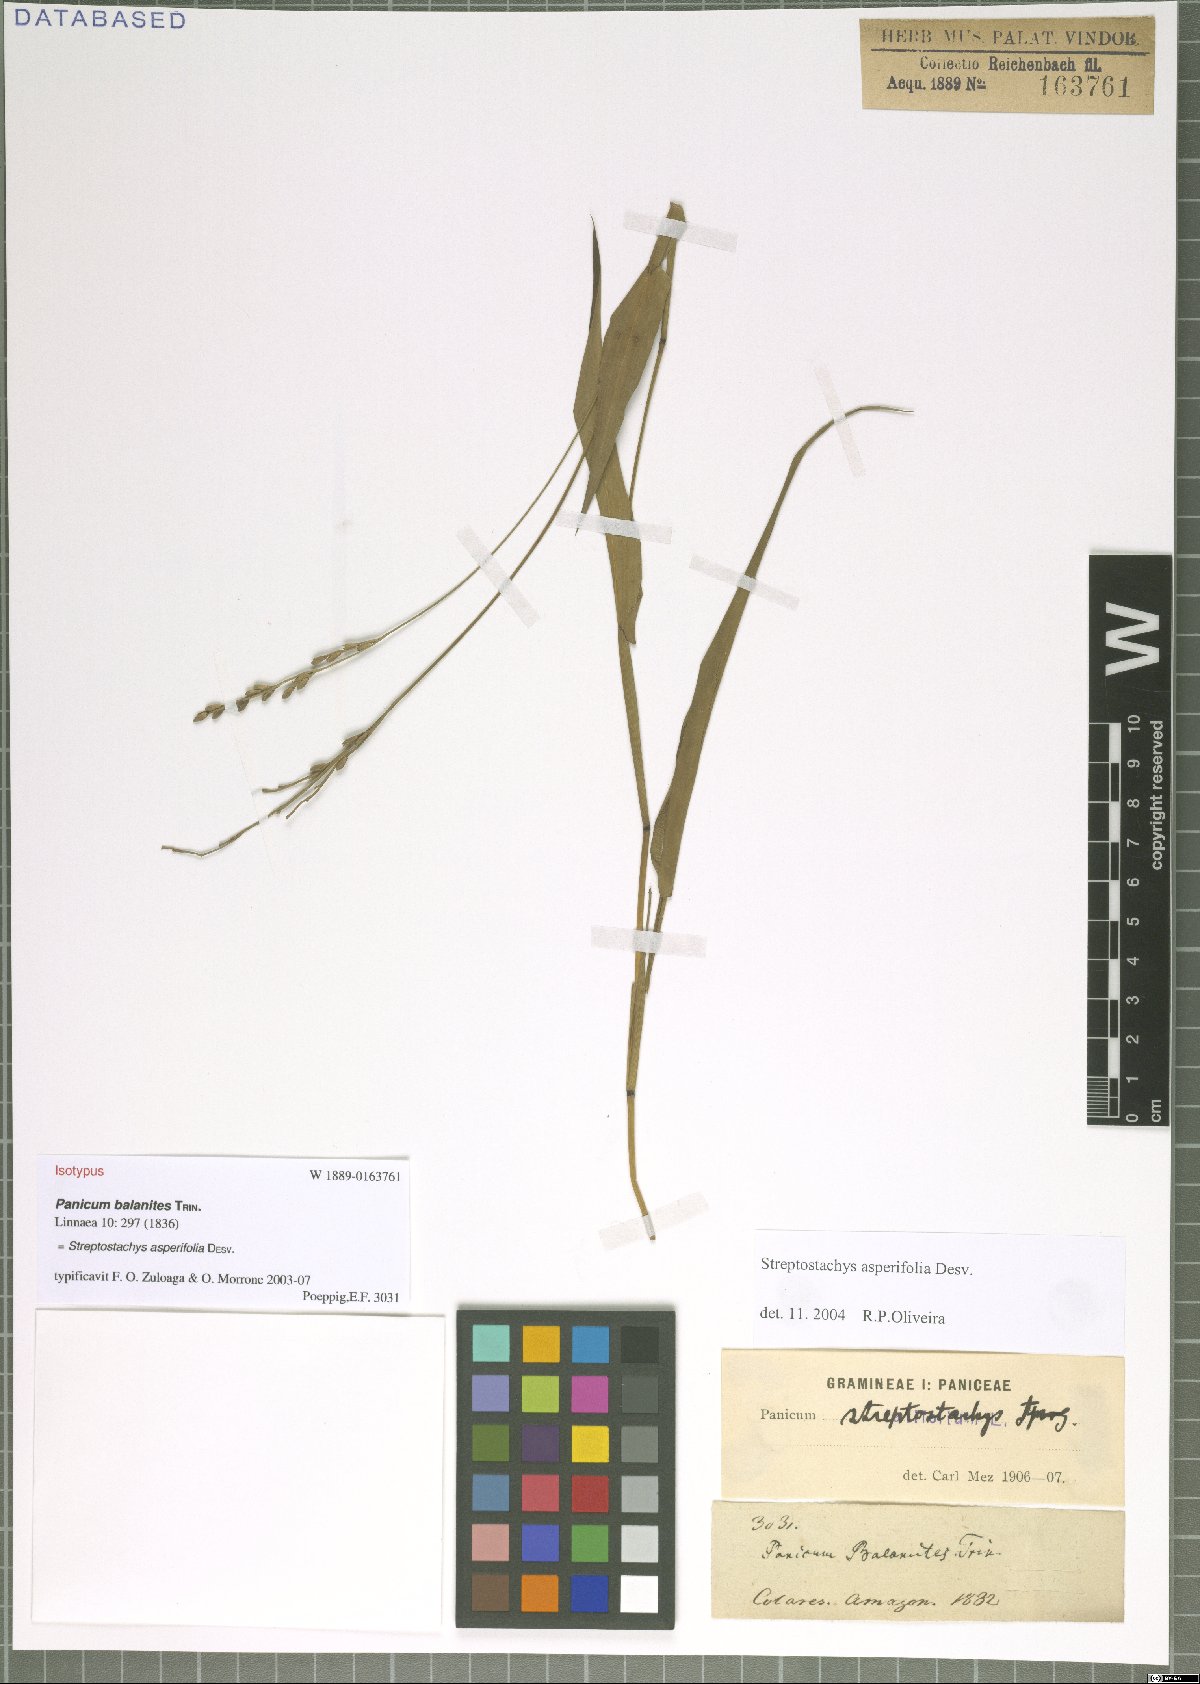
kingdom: Plantae
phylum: Tracheophyta
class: Liliopsida
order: Poales
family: Poaceae
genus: Streptostachys
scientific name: Streptostachys asperifolia
